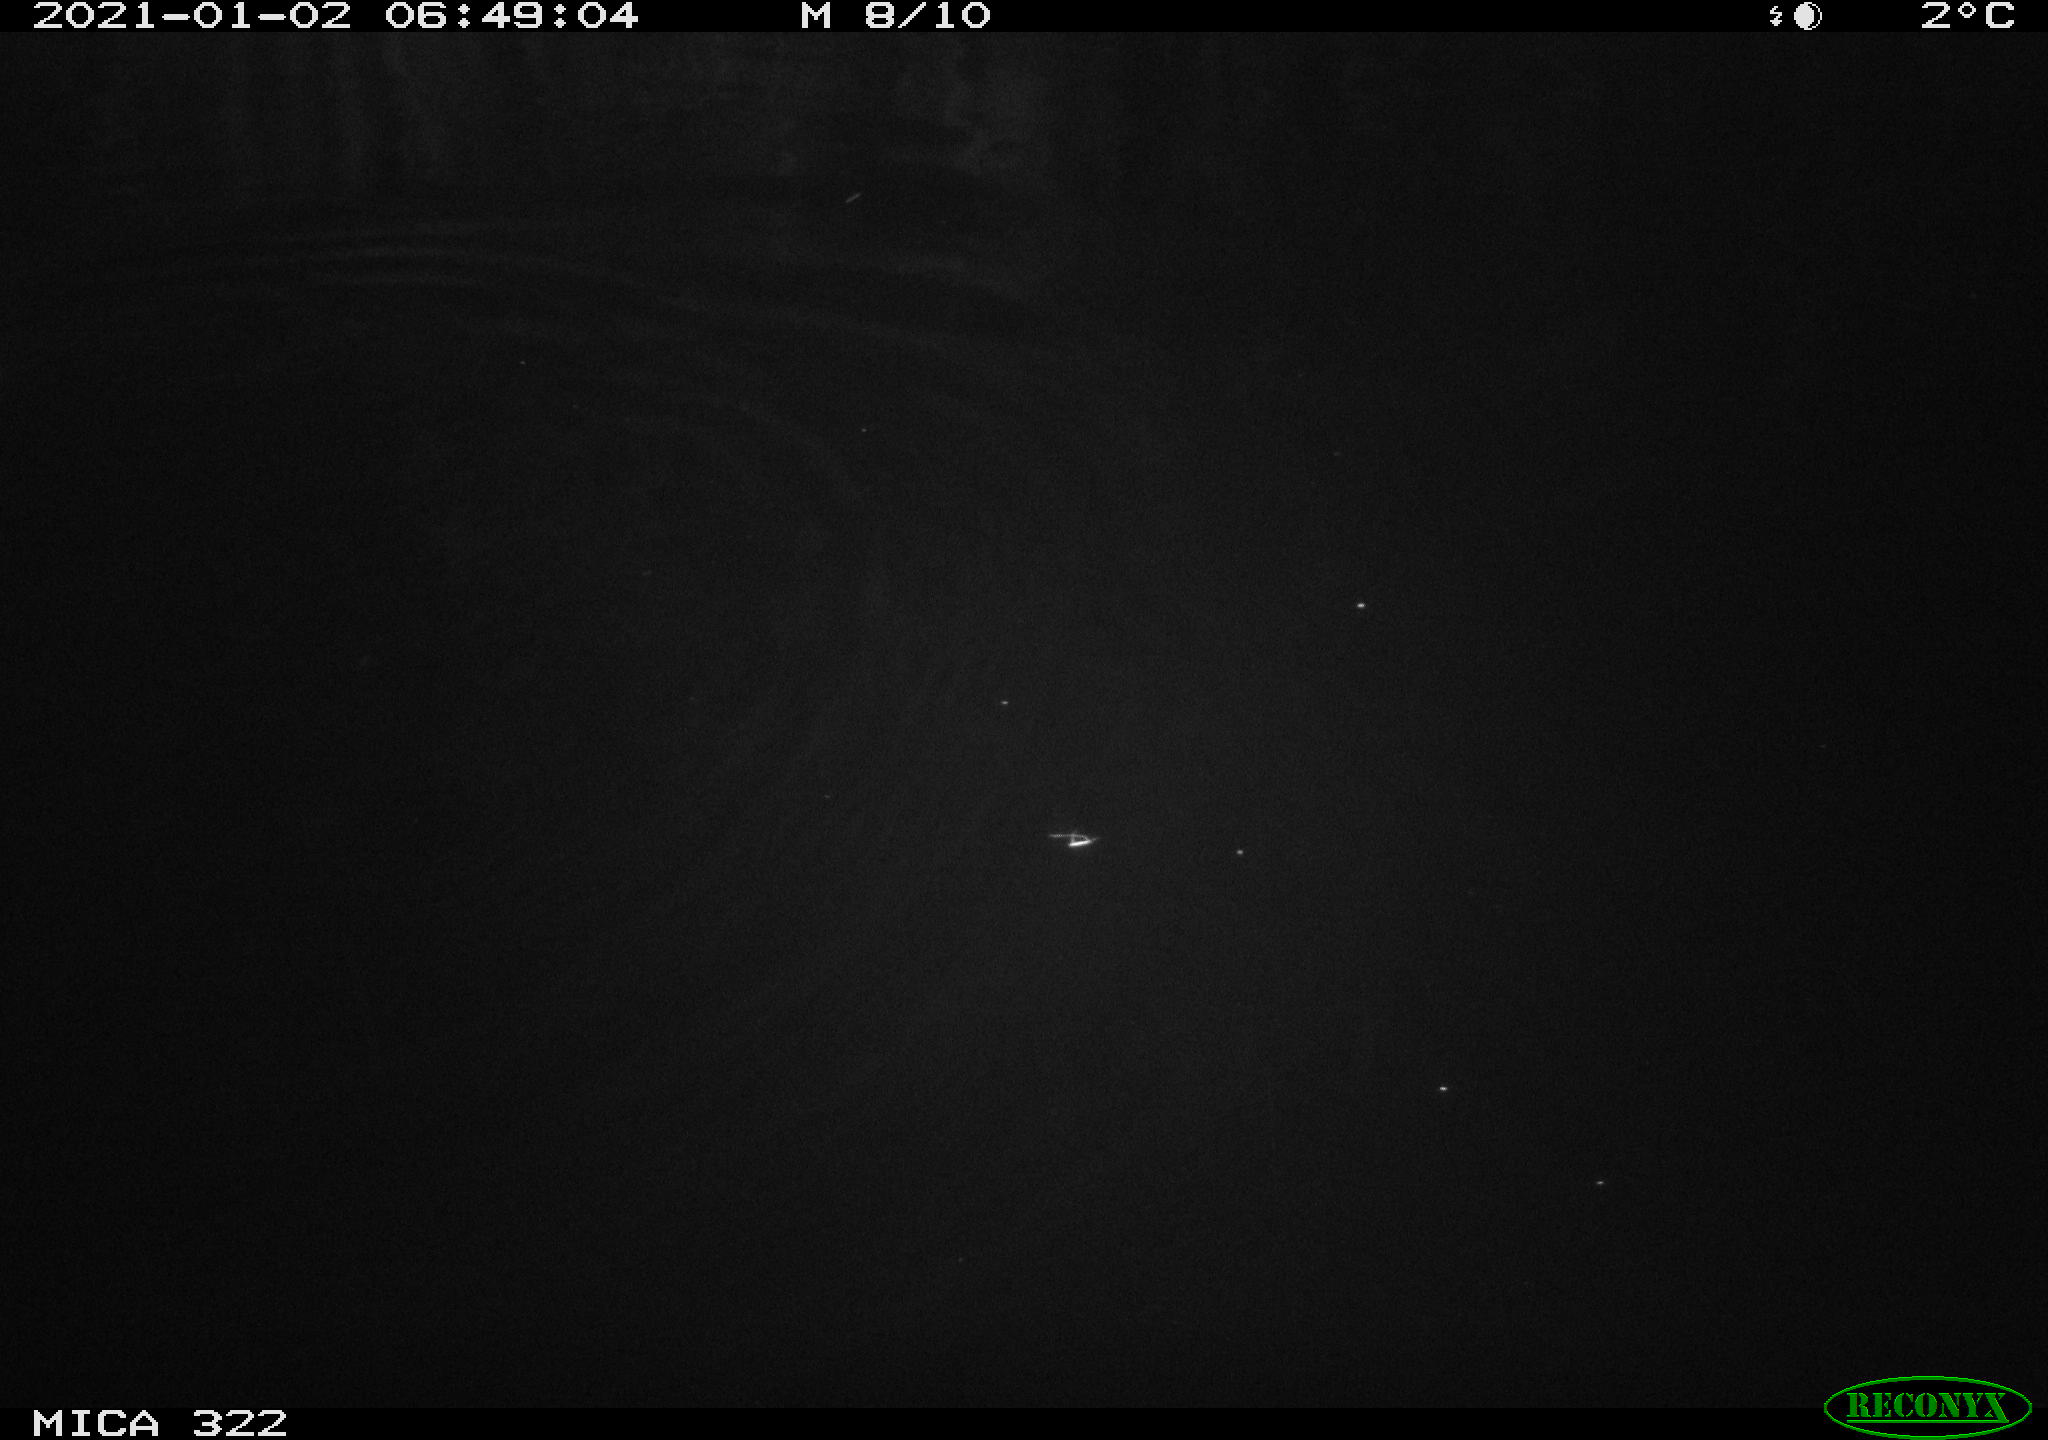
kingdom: Animalia
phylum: Chordata
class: Aves
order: Anseriformes
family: Anatidae
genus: Anas
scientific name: Anas platyrhynchos
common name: Mallard
